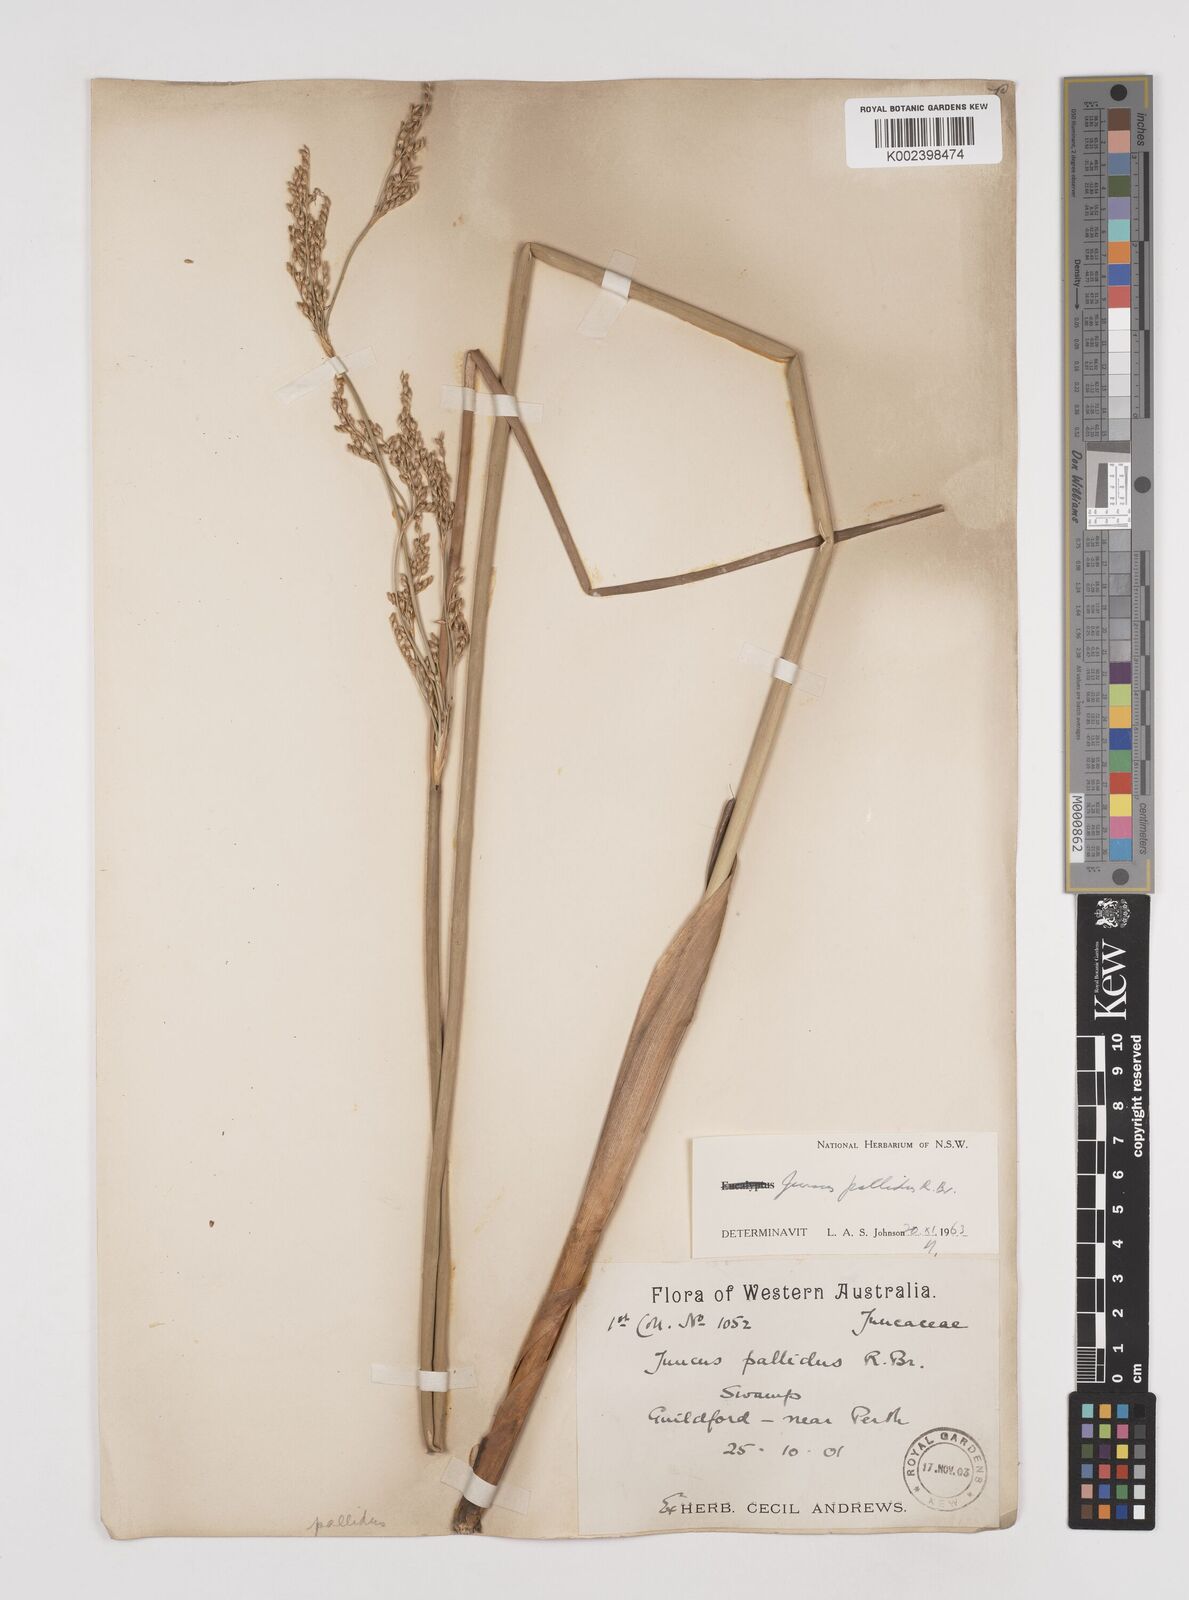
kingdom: Plantae
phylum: Tracheophyta
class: Liliopsida
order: Poales
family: Juncaceae
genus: Juncus
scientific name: Juncus pallidus
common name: Great soft-rush
